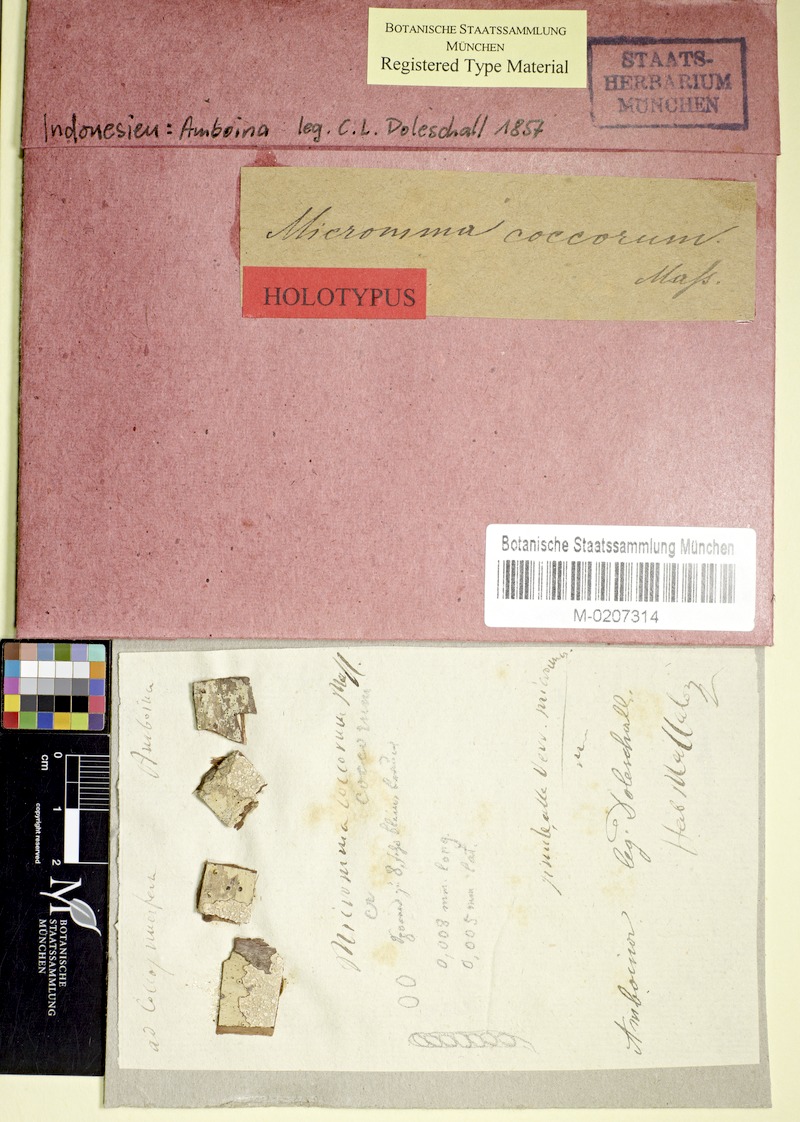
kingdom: Fungi
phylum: Ascomycota
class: Eurotiomycetes
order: Pyrenulales
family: Pyrenulaceae
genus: Micromma
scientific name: Micromma coccorum
